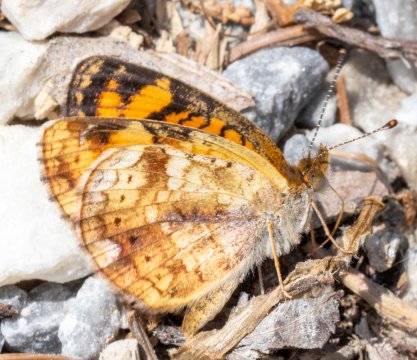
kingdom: Animalia
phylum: Arthropoda
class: Insecta
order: Lepidoptera
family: Nymphalidae
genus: Phyciodes
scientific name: Phyciodes
